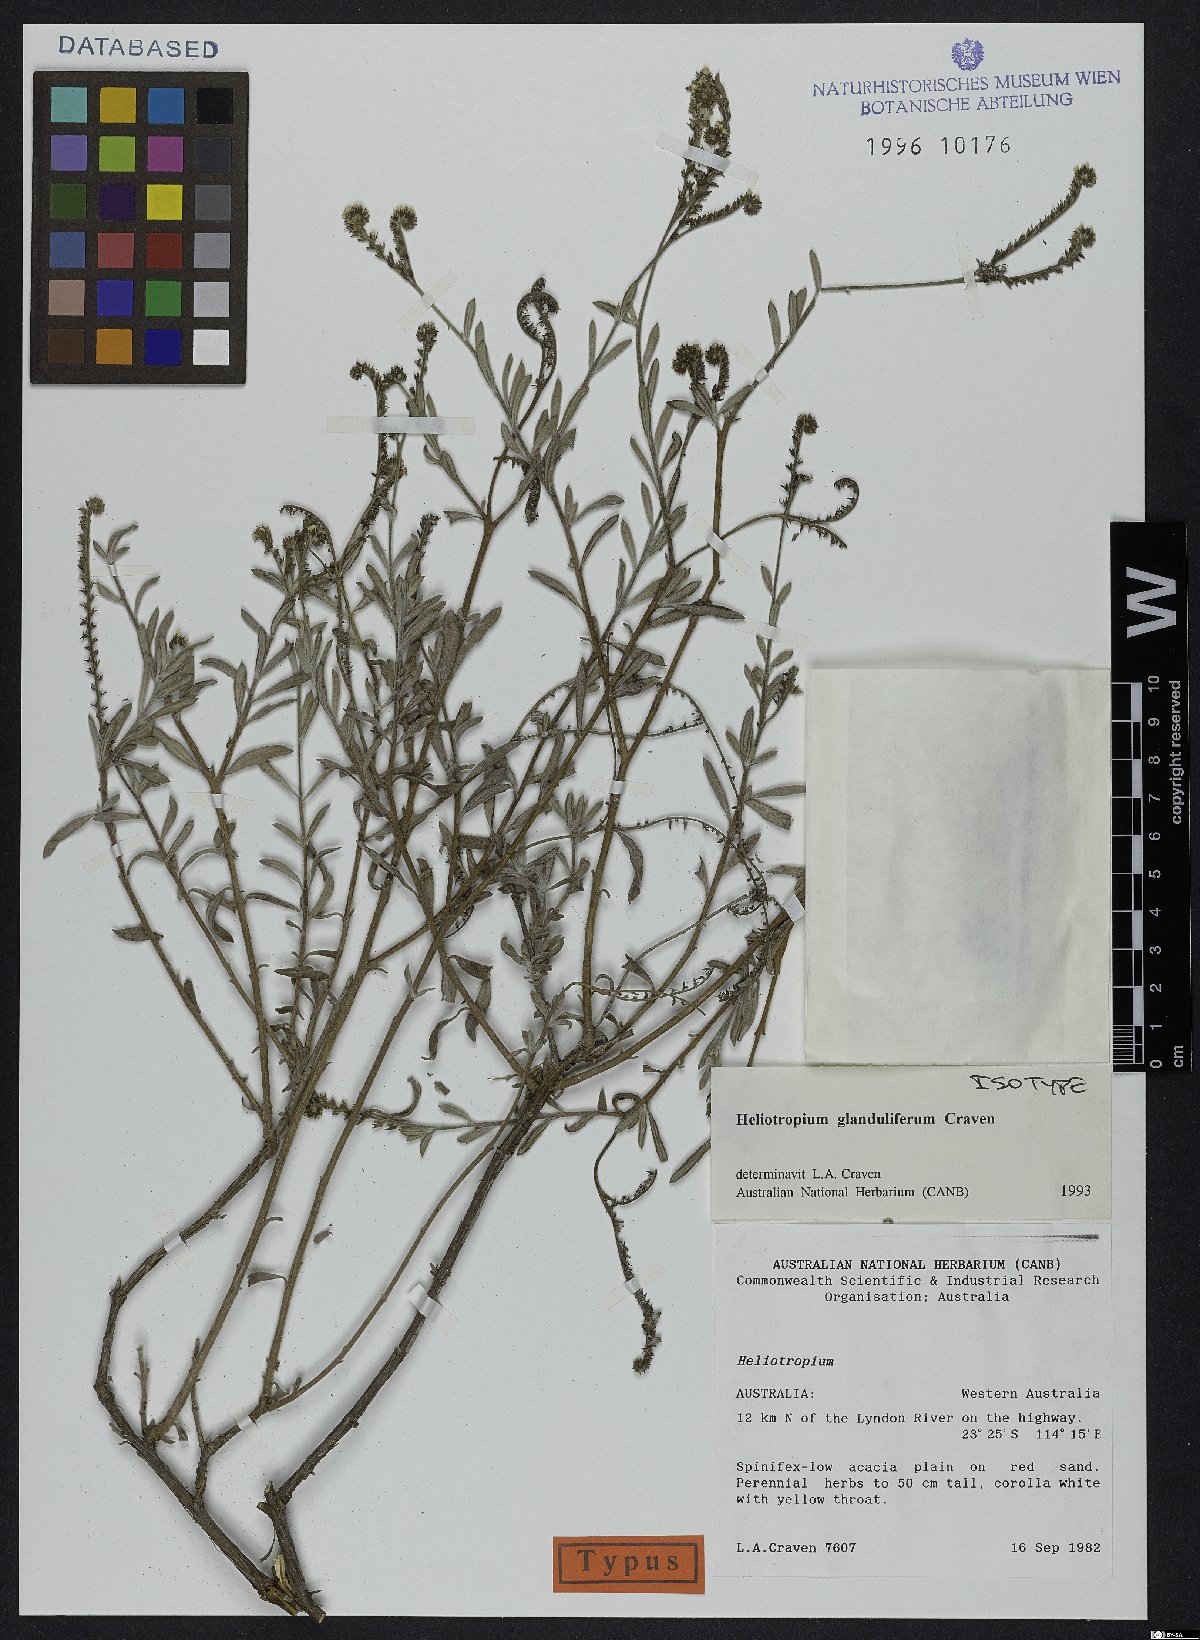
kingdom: Plantae
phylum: Tracheophyta
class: Magnoliopsida
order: Boraginales
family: Heliotropiaceae
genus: Euploca
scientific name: Euploca glandulifera
